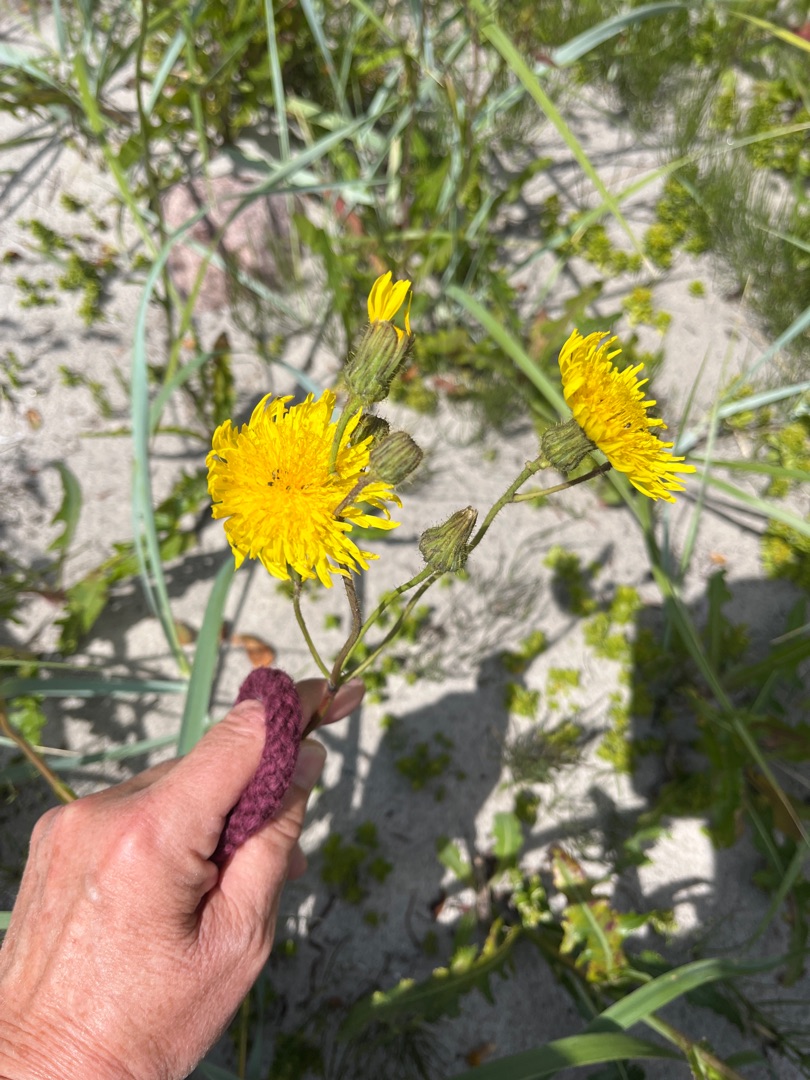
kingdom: Plantae
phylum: Tracheophyta
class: Magnoliopsida
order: Asterales
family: Asteraceae
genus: Sonchus
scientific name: Sonchus arvensis
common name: Ager-svinemælk
